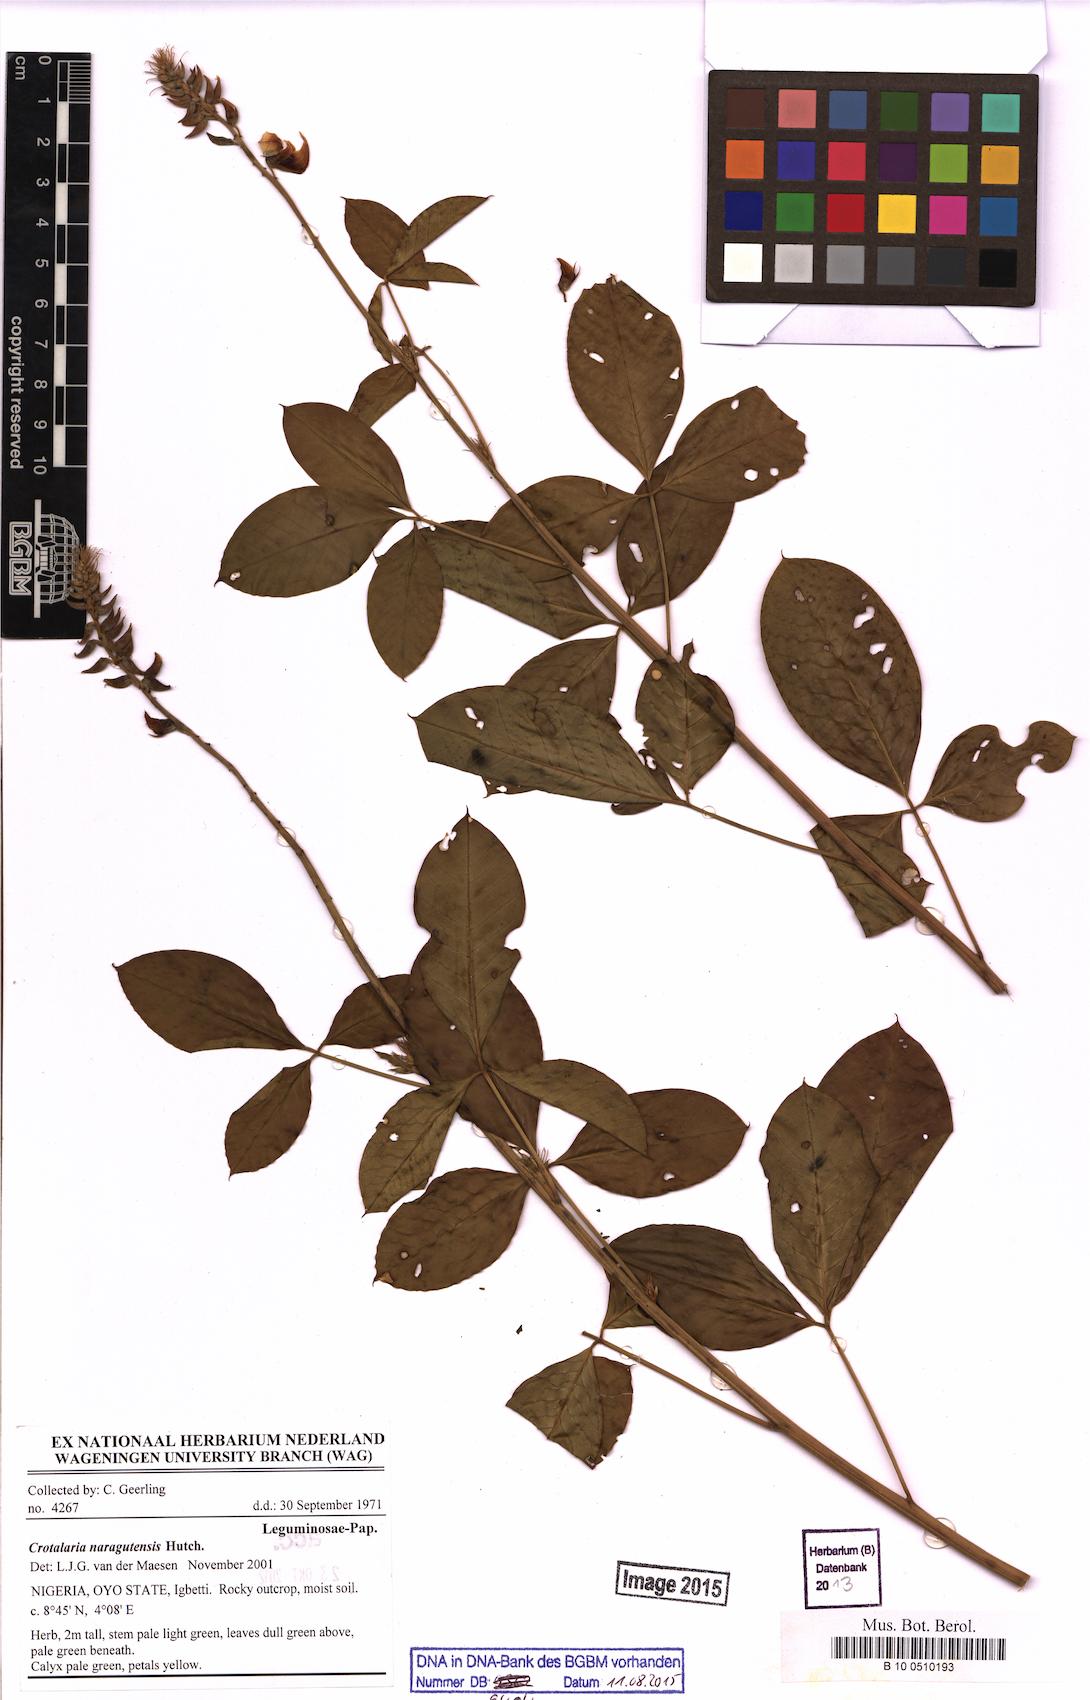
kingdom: Plantae
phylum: Tracheophyta
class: Magnoliopsida
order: Fabales
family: Fabaceae
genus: Crotalaria
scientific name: Crotalaria naragutensis
